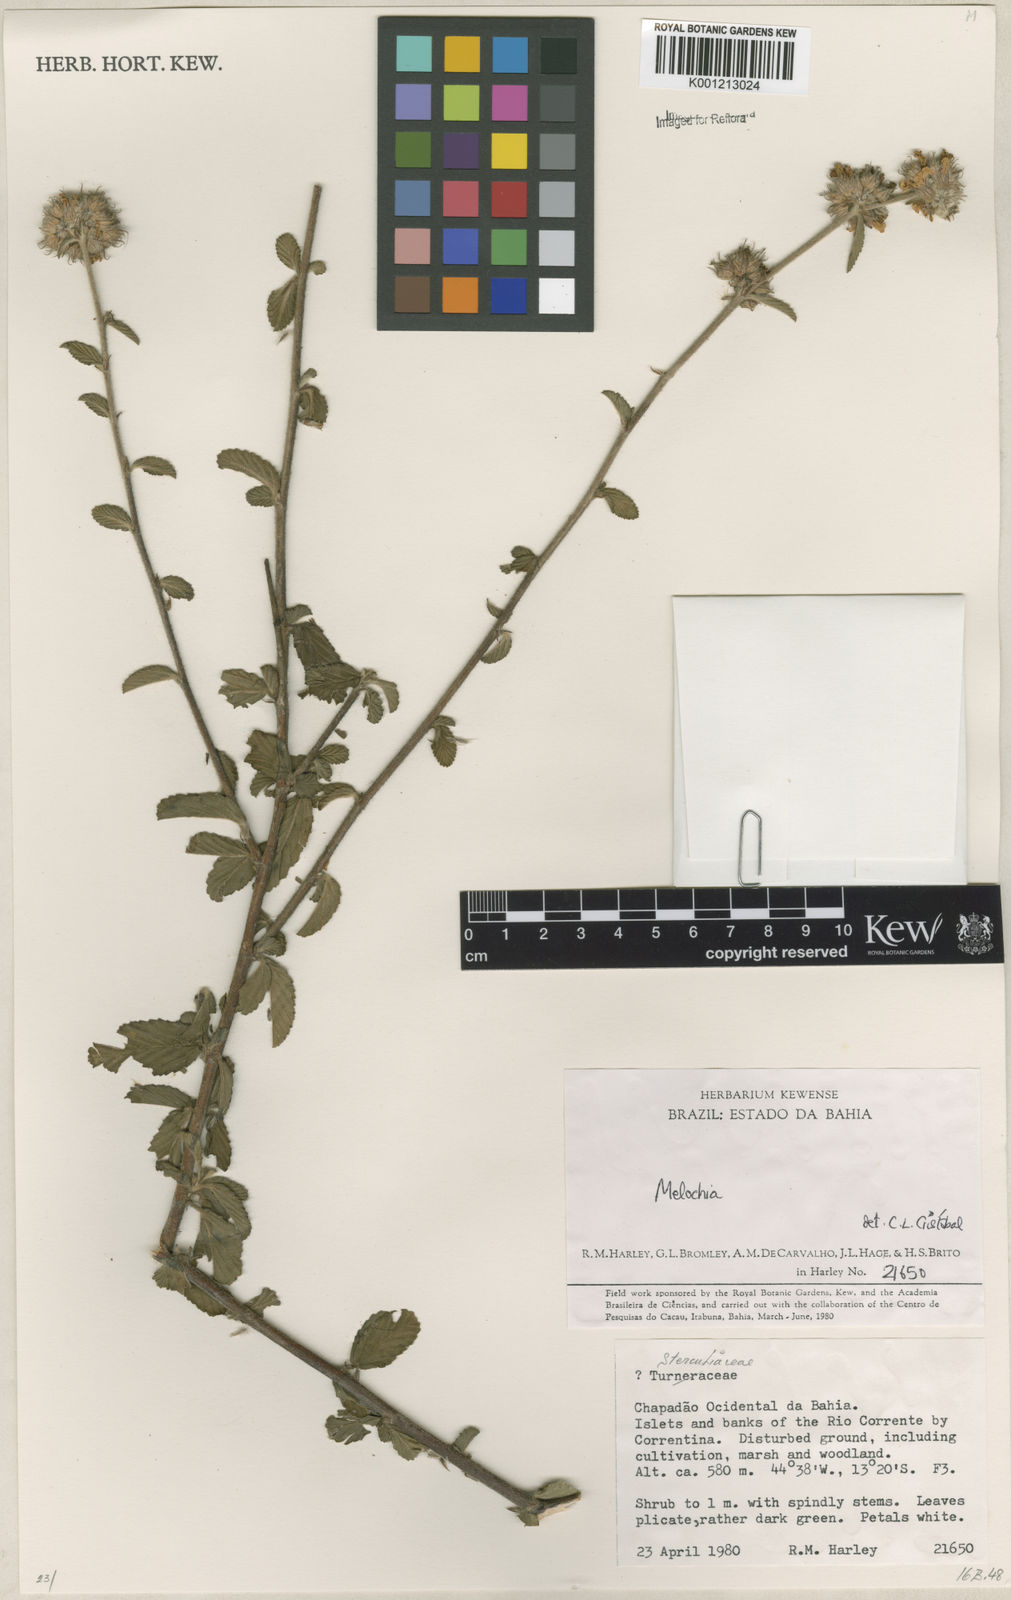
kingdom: Plantae
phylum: Tracheophyta
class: Magnoliopsida
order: Malvales
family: Malvaceae
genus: Melochia
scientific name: Melochia
